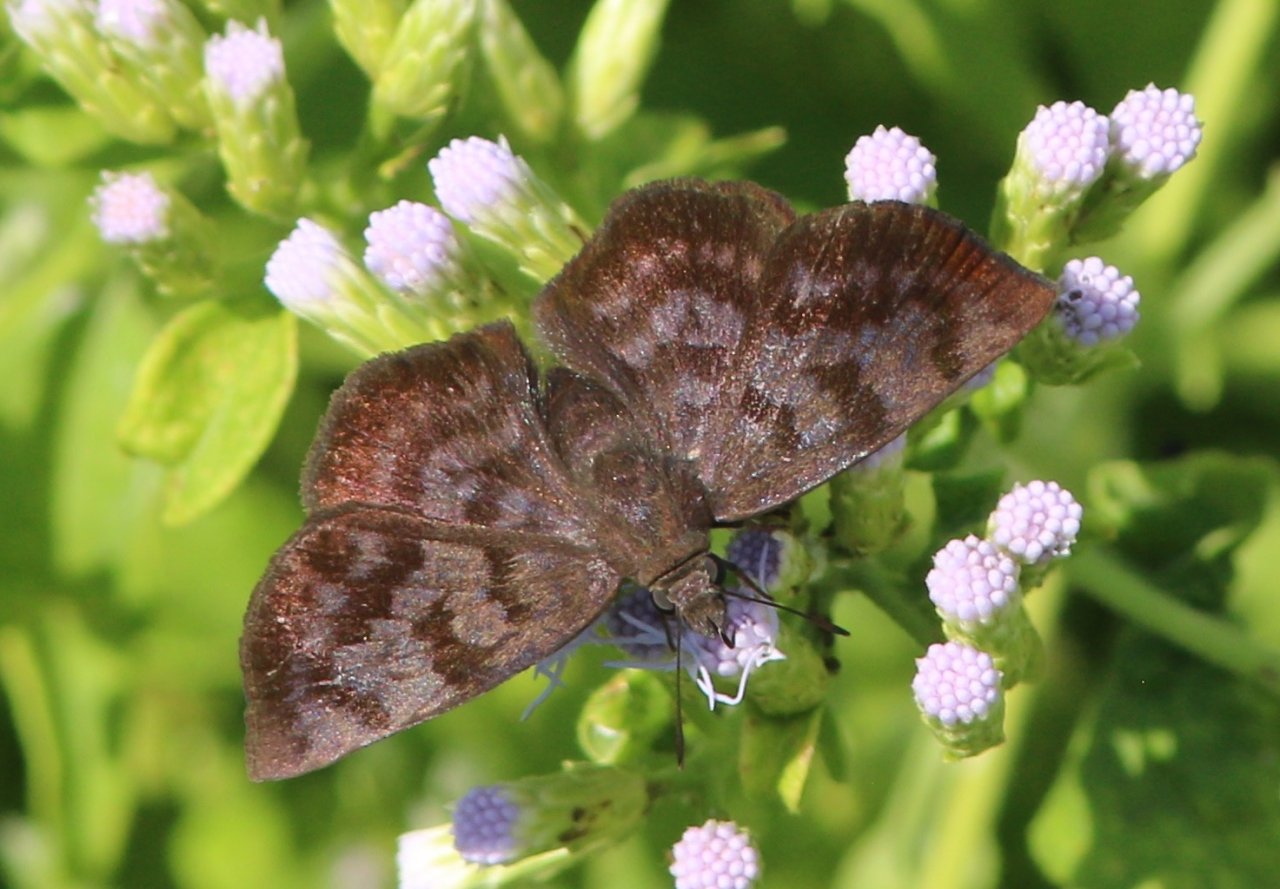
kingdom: Animalia
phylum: Arthropoda
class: Insecta
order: Lepidoptera
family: Hesperiidae
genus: Pellicia
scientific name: Pellicia costimacula
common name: Glazed Pellicia
